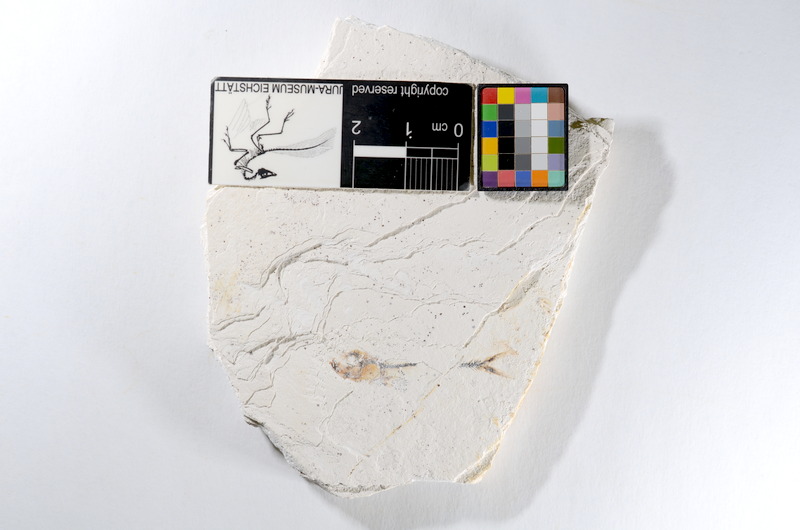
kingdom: Animalia
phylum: Chordata
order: Salmoniformes
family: Orthogonikleithridae
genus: Orthogonikleithrus
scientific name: Orthogonikleithrus hoelli
